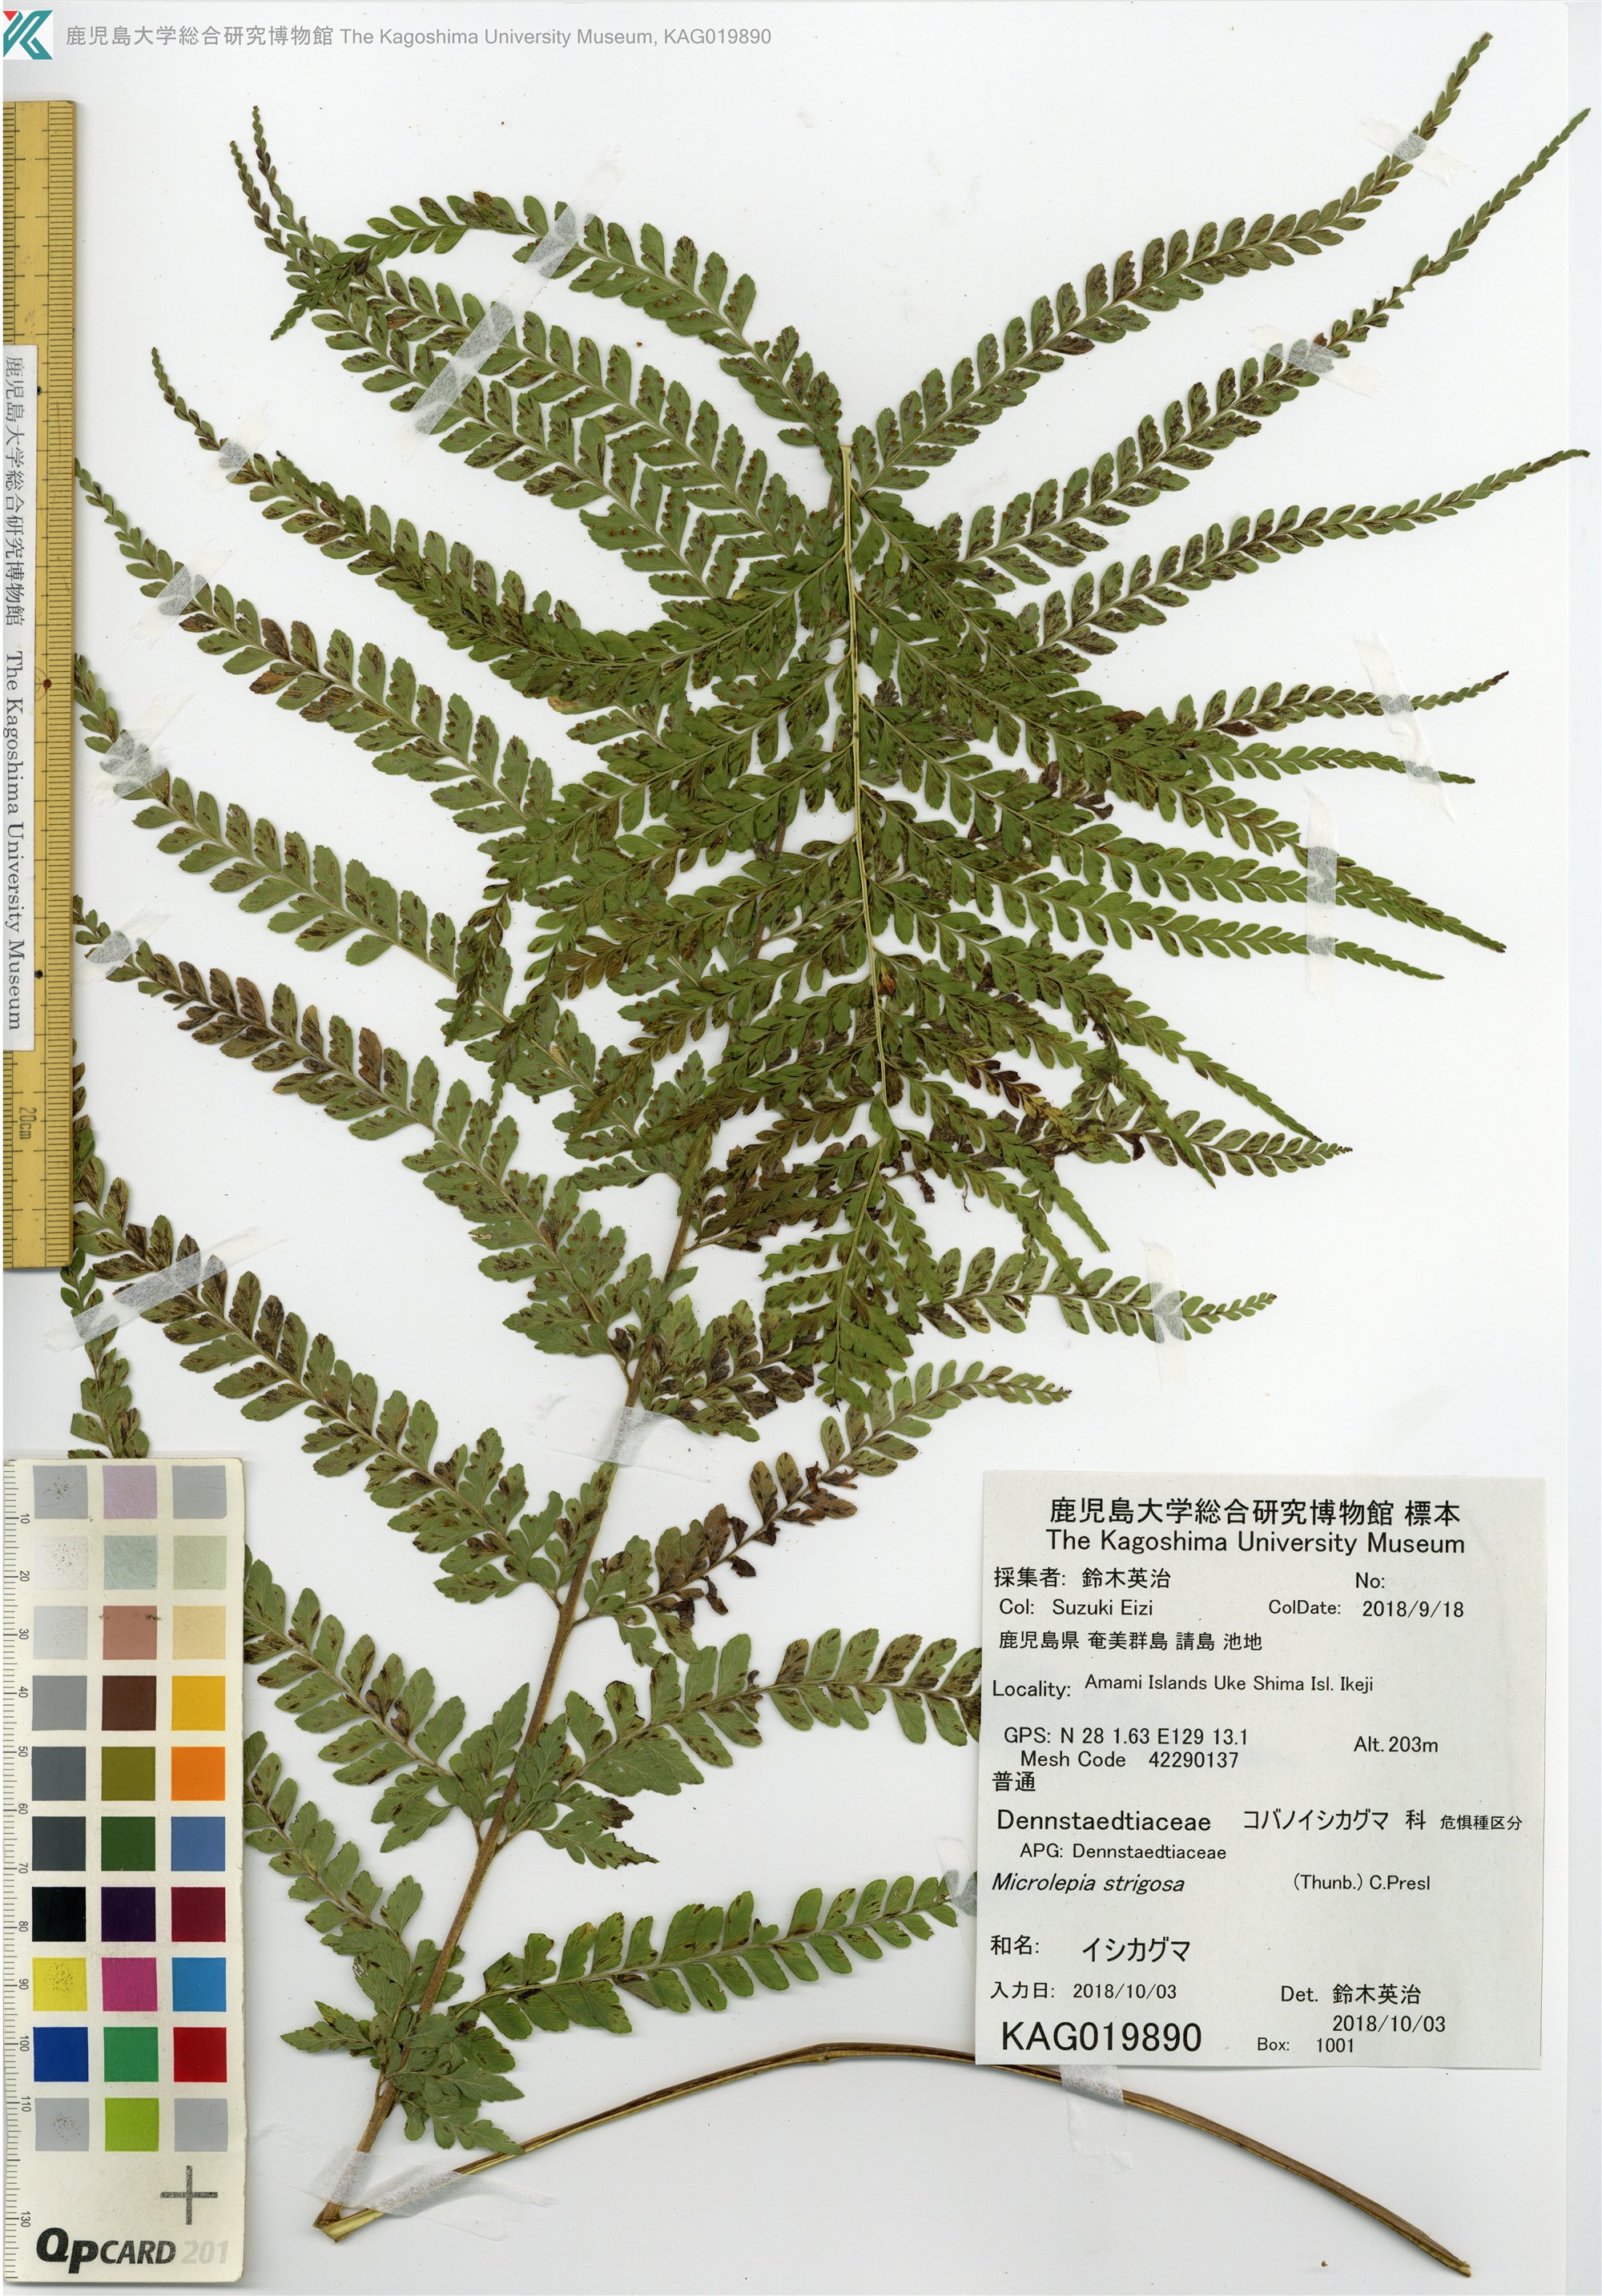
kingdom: Plantae
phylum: Tracheophyta
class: Polypodiopsida
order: Polypodiales
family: Dennstaedtiaceae
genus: Microlepia
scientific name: Microlepia strigosa
